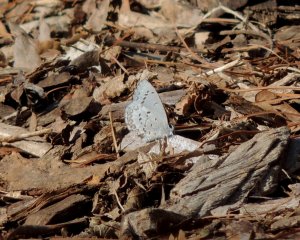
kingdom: Animalia
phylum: Arthropoda
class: Insecta
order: Lepidoptera
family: Lycaenidae
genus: Celastrina
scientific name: Celastrina ladon
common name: Spring Azure
